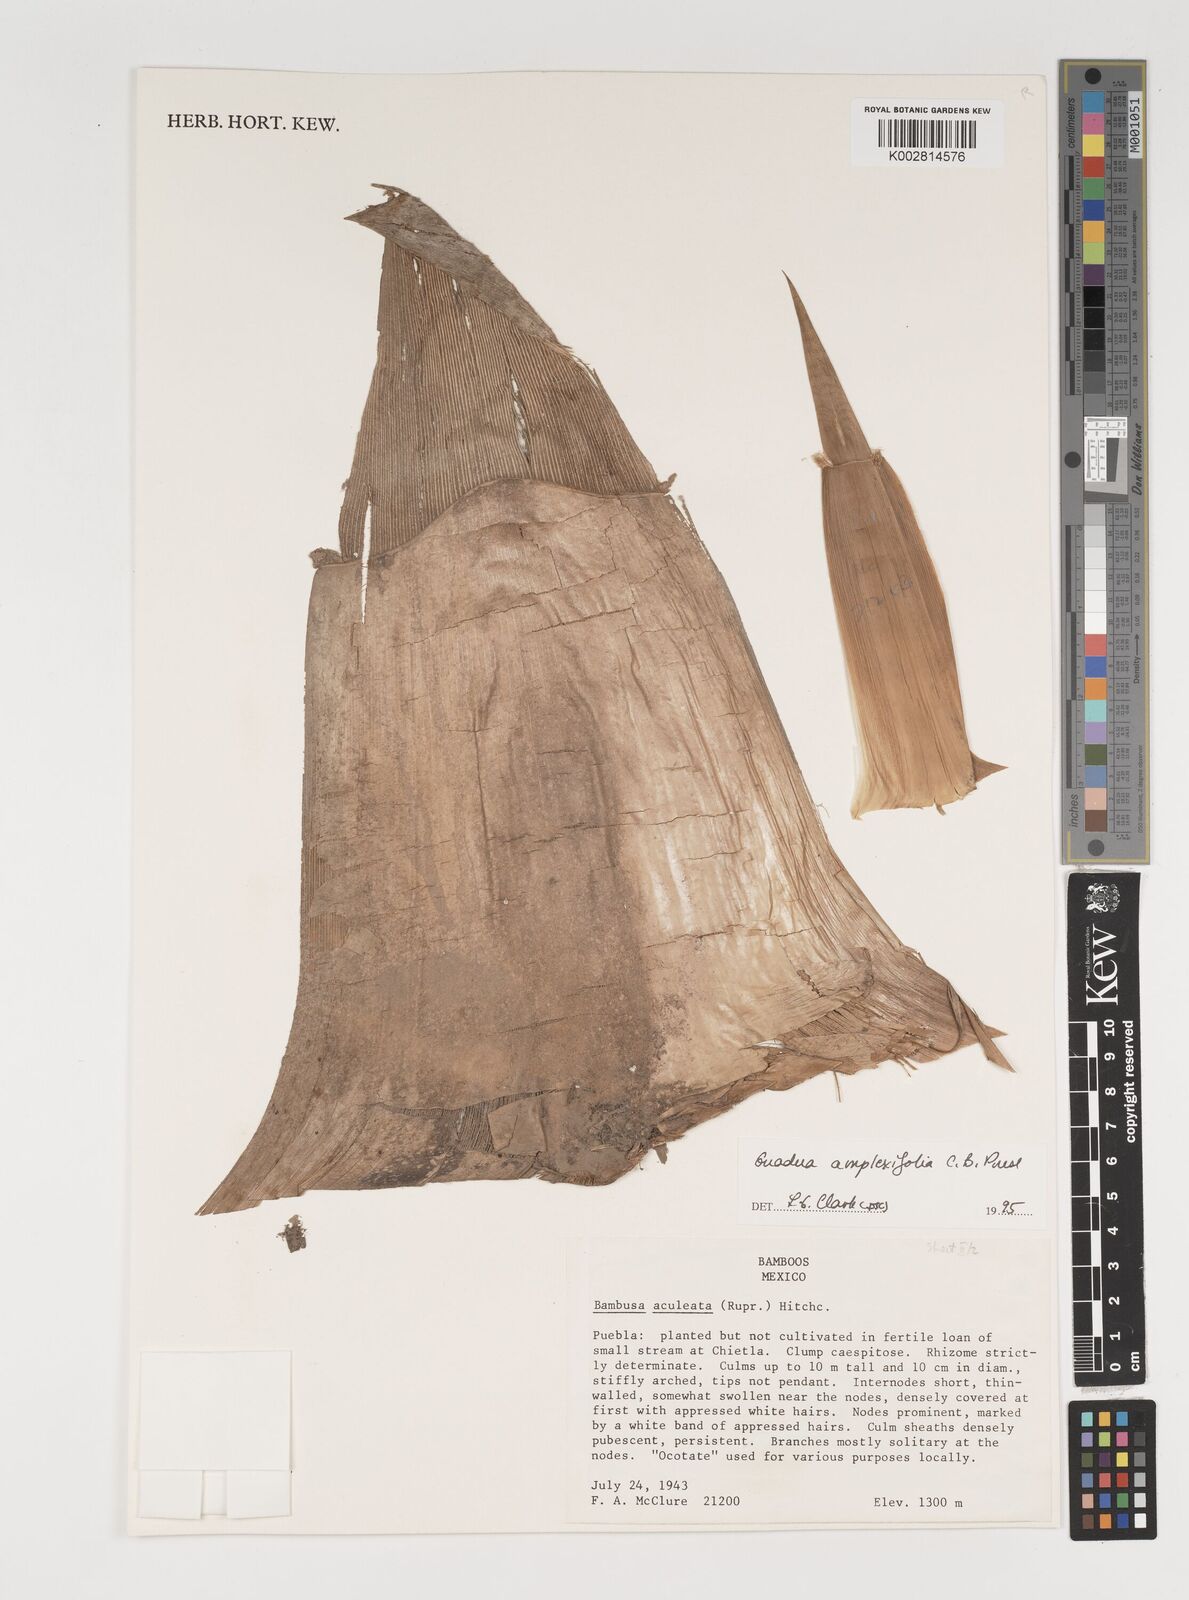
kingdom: Plantae
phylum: Tracheophyta
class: Liliopsida
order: Poales
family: Poaceae
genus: Guadua
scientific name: Guadua
